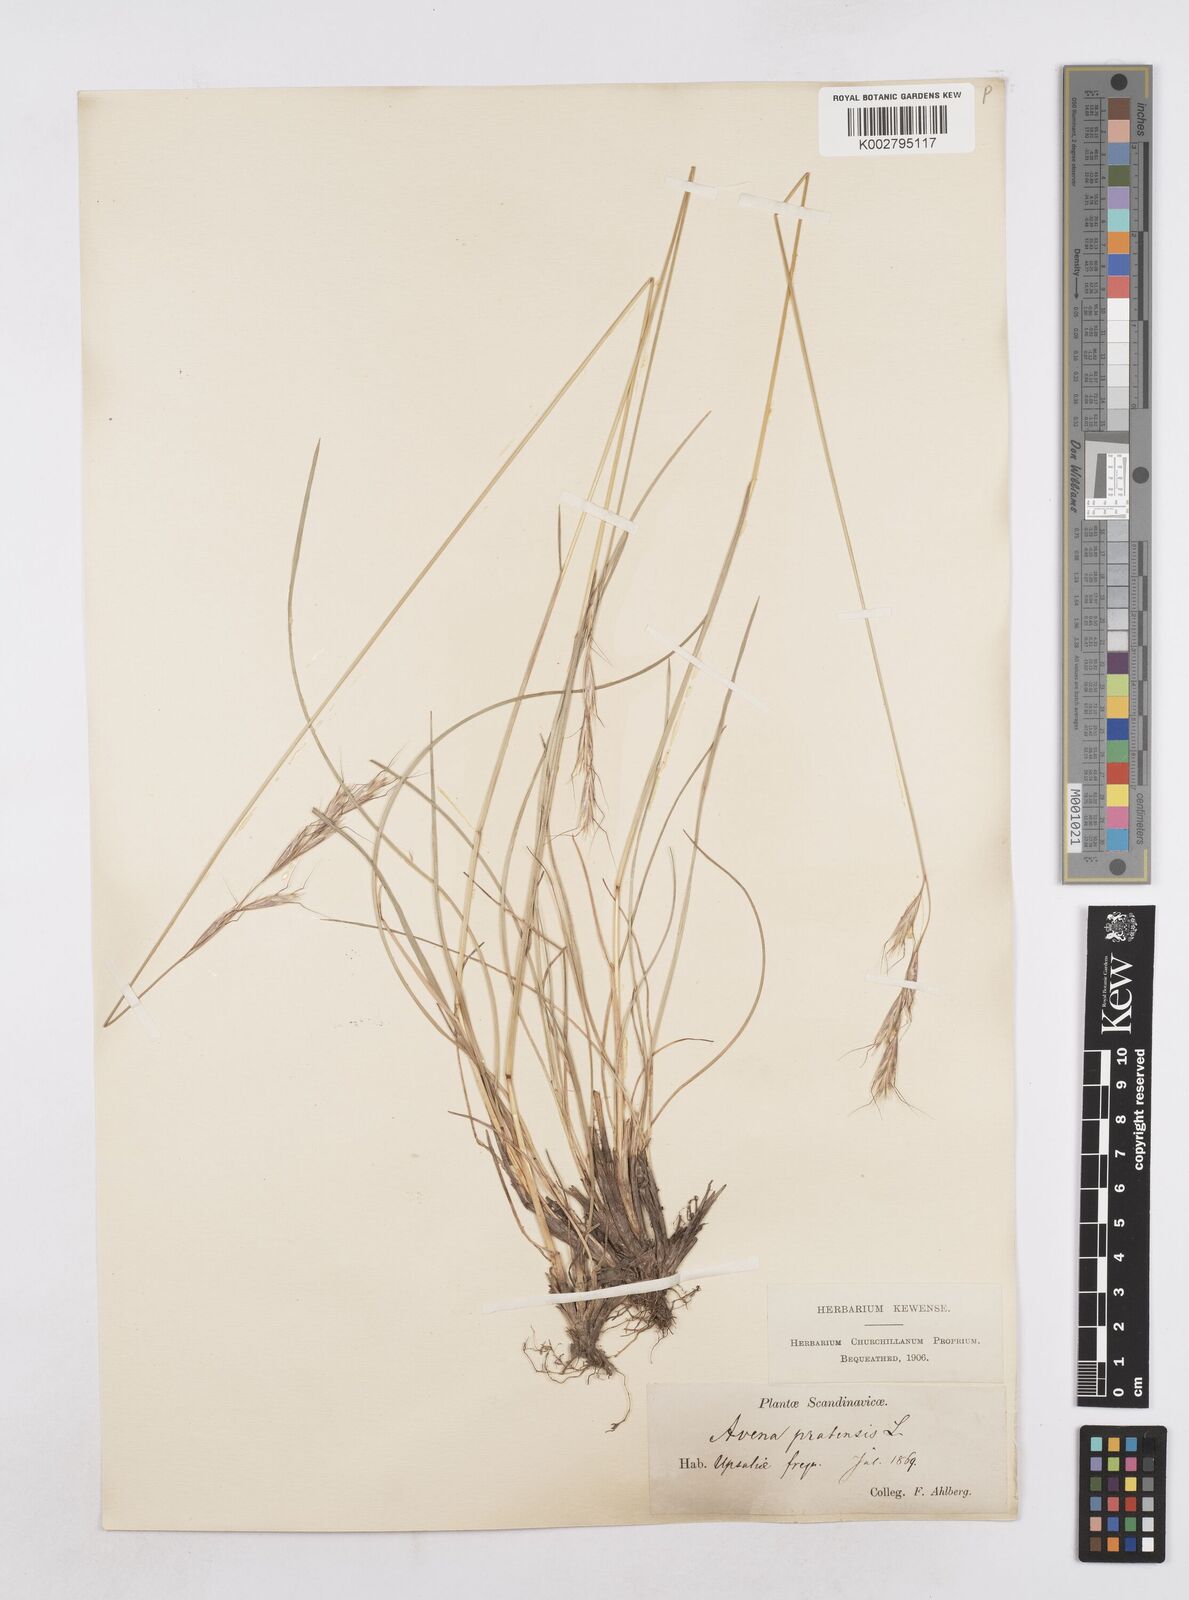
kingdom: Plantae
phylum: Tracheophyta
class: Liliopsida
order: Poales
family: Poaceae
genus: Helictochloa
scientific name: Helictochloa pratensis
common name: Meadow oat grass
